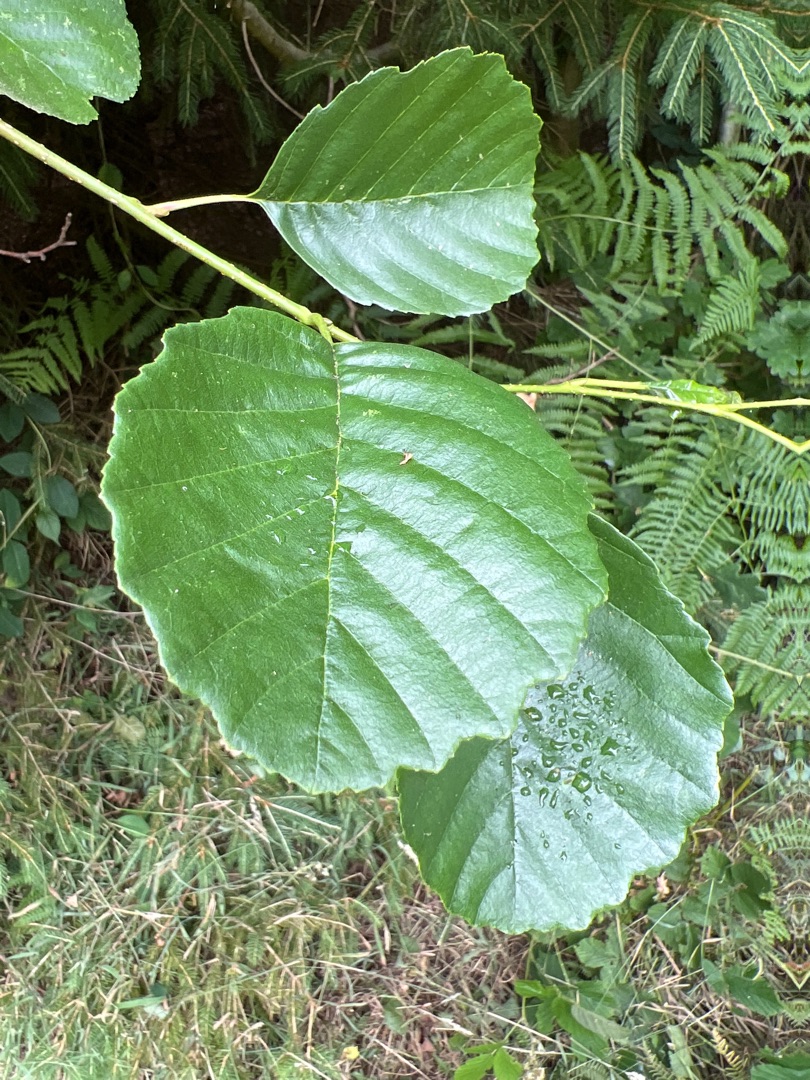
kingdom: Plantae
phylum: Tracheophyta
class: Magnoliopsida
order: Fagales
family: Betulaceae
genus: Alnus
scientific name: Alnus glutinosa
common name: Rød-el
